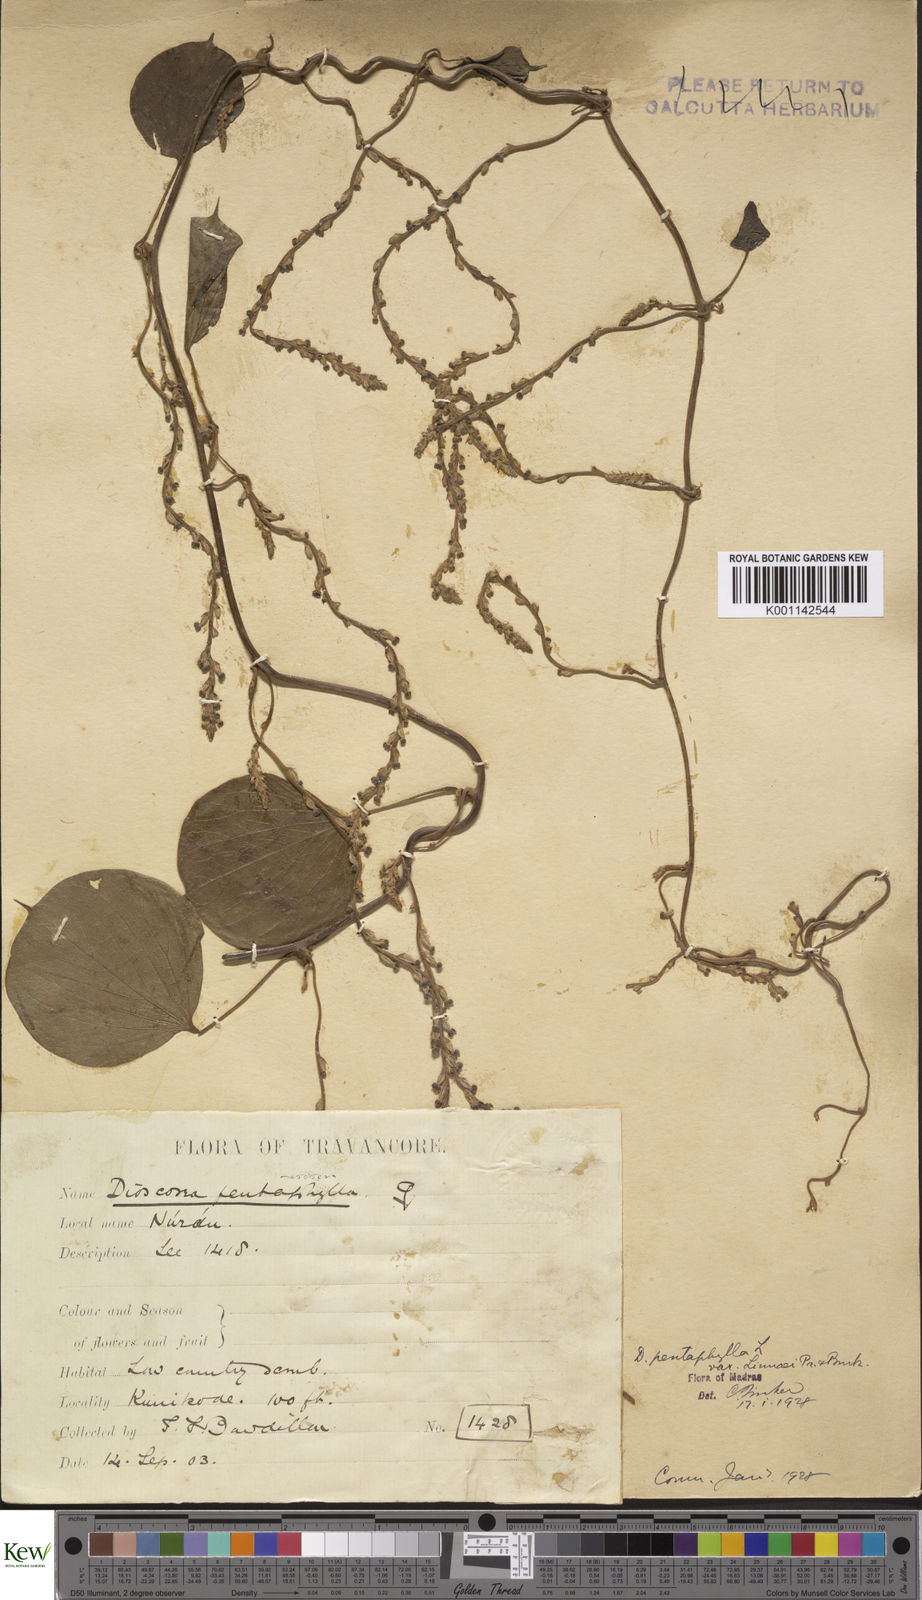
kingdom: Plantae
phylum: Tracheophyta
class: Liliopsida
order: Dioscoreales
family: Dioscoreaceae
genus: Dioscorea
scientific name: Dioscorea pentaphylla
